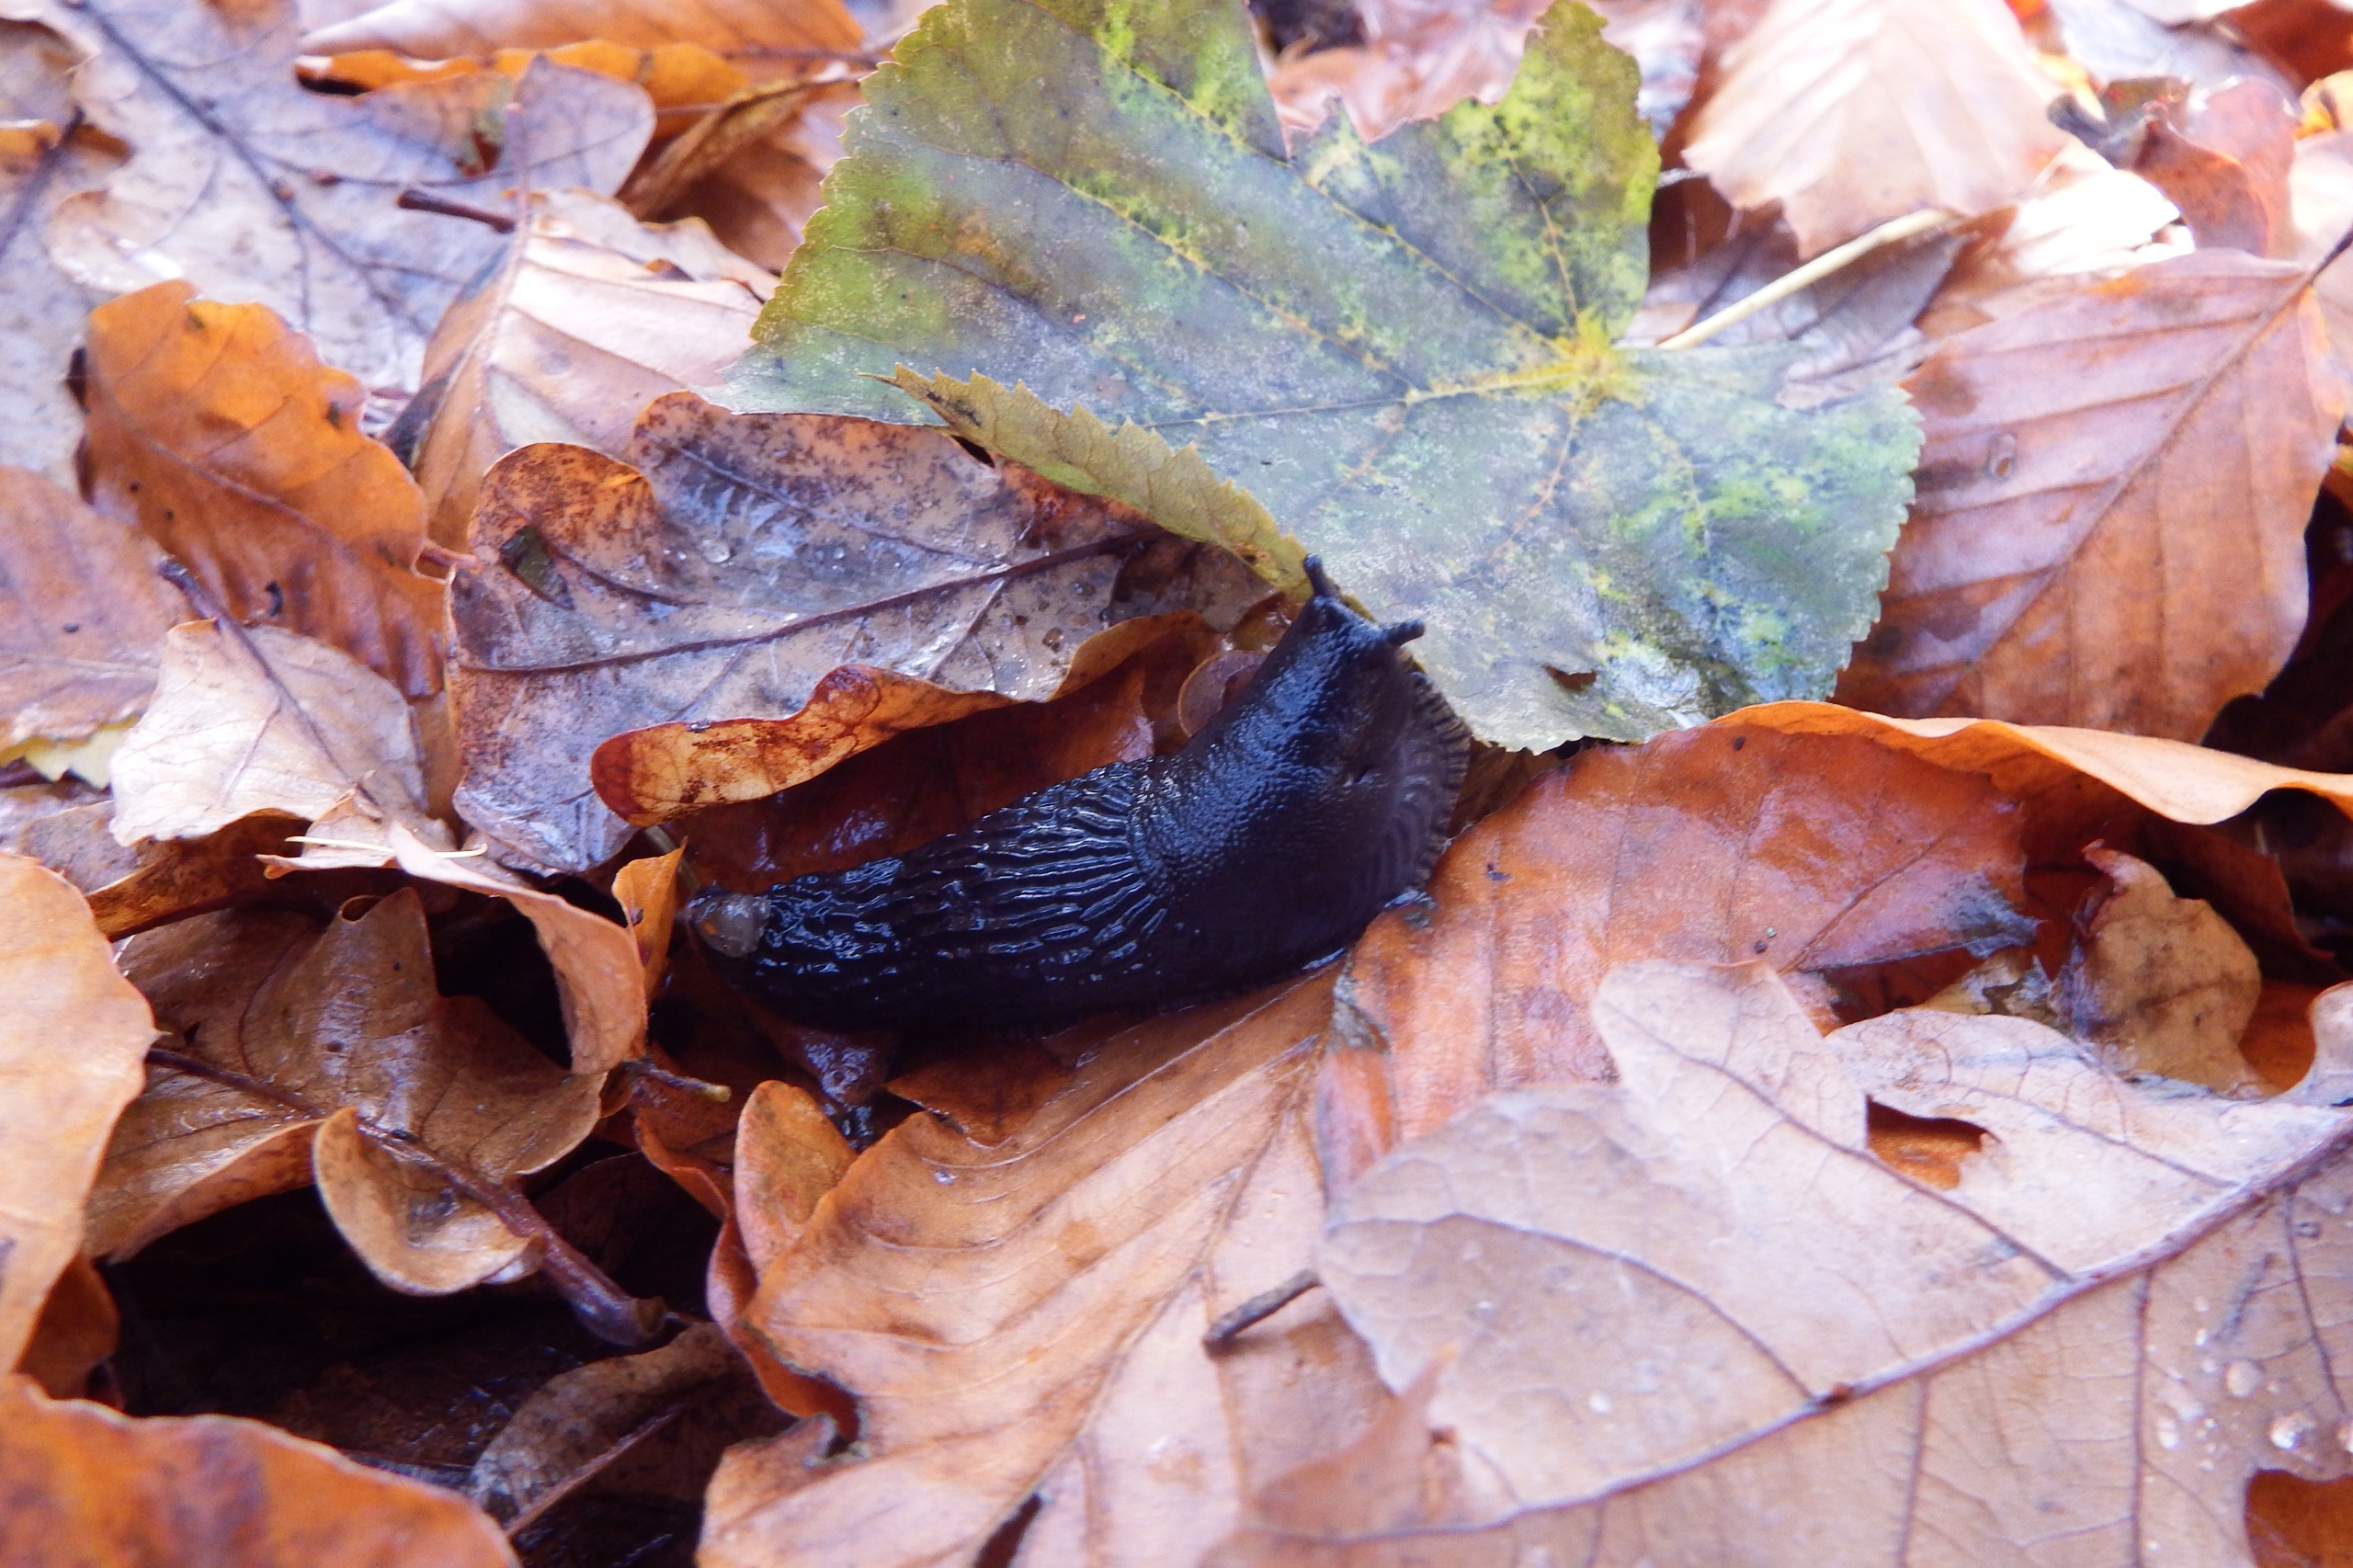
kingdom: Animalia
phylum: Mollusca
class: Gastropoda
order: Stylommatophora
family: Arionidae
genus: Arion
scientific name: Arion ater
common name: Sort skovsnegl
